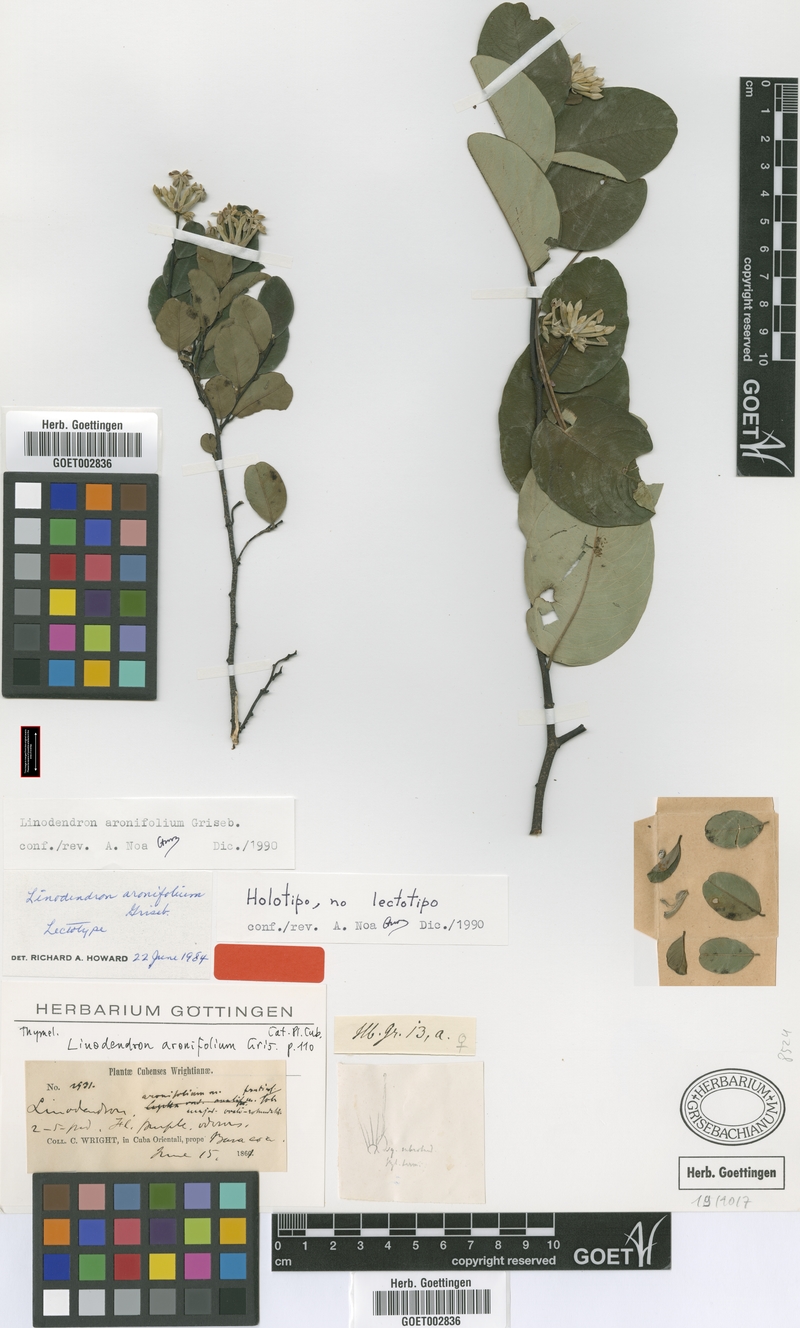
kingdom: Plantae
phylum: Tracheophyta
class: Magnoliopsida
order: Malvales
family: Thymelaeaceae
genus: Linodendron
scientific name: Linodendron aronifolium
